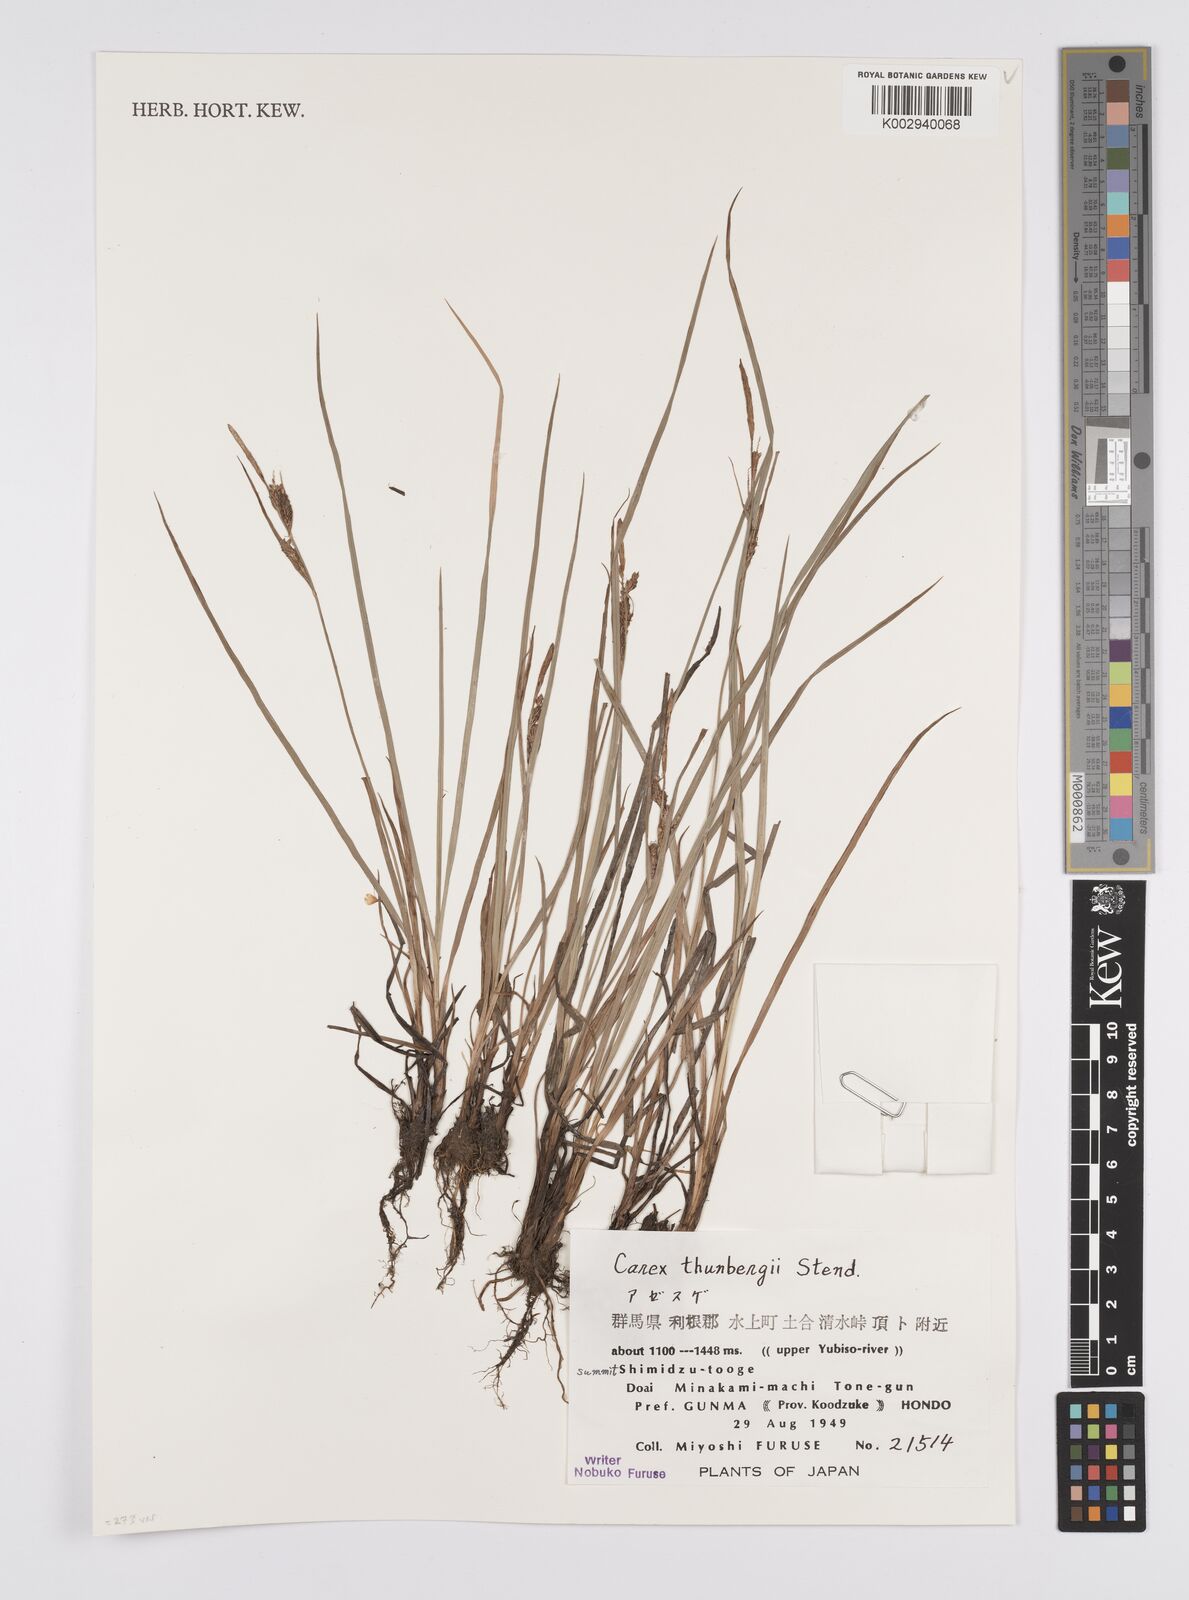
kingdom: Plantae
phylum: Tracheophyta
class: Liliopsida
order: Poales
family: Cyperaceae
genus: Carex
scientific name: Carex thunbergii
